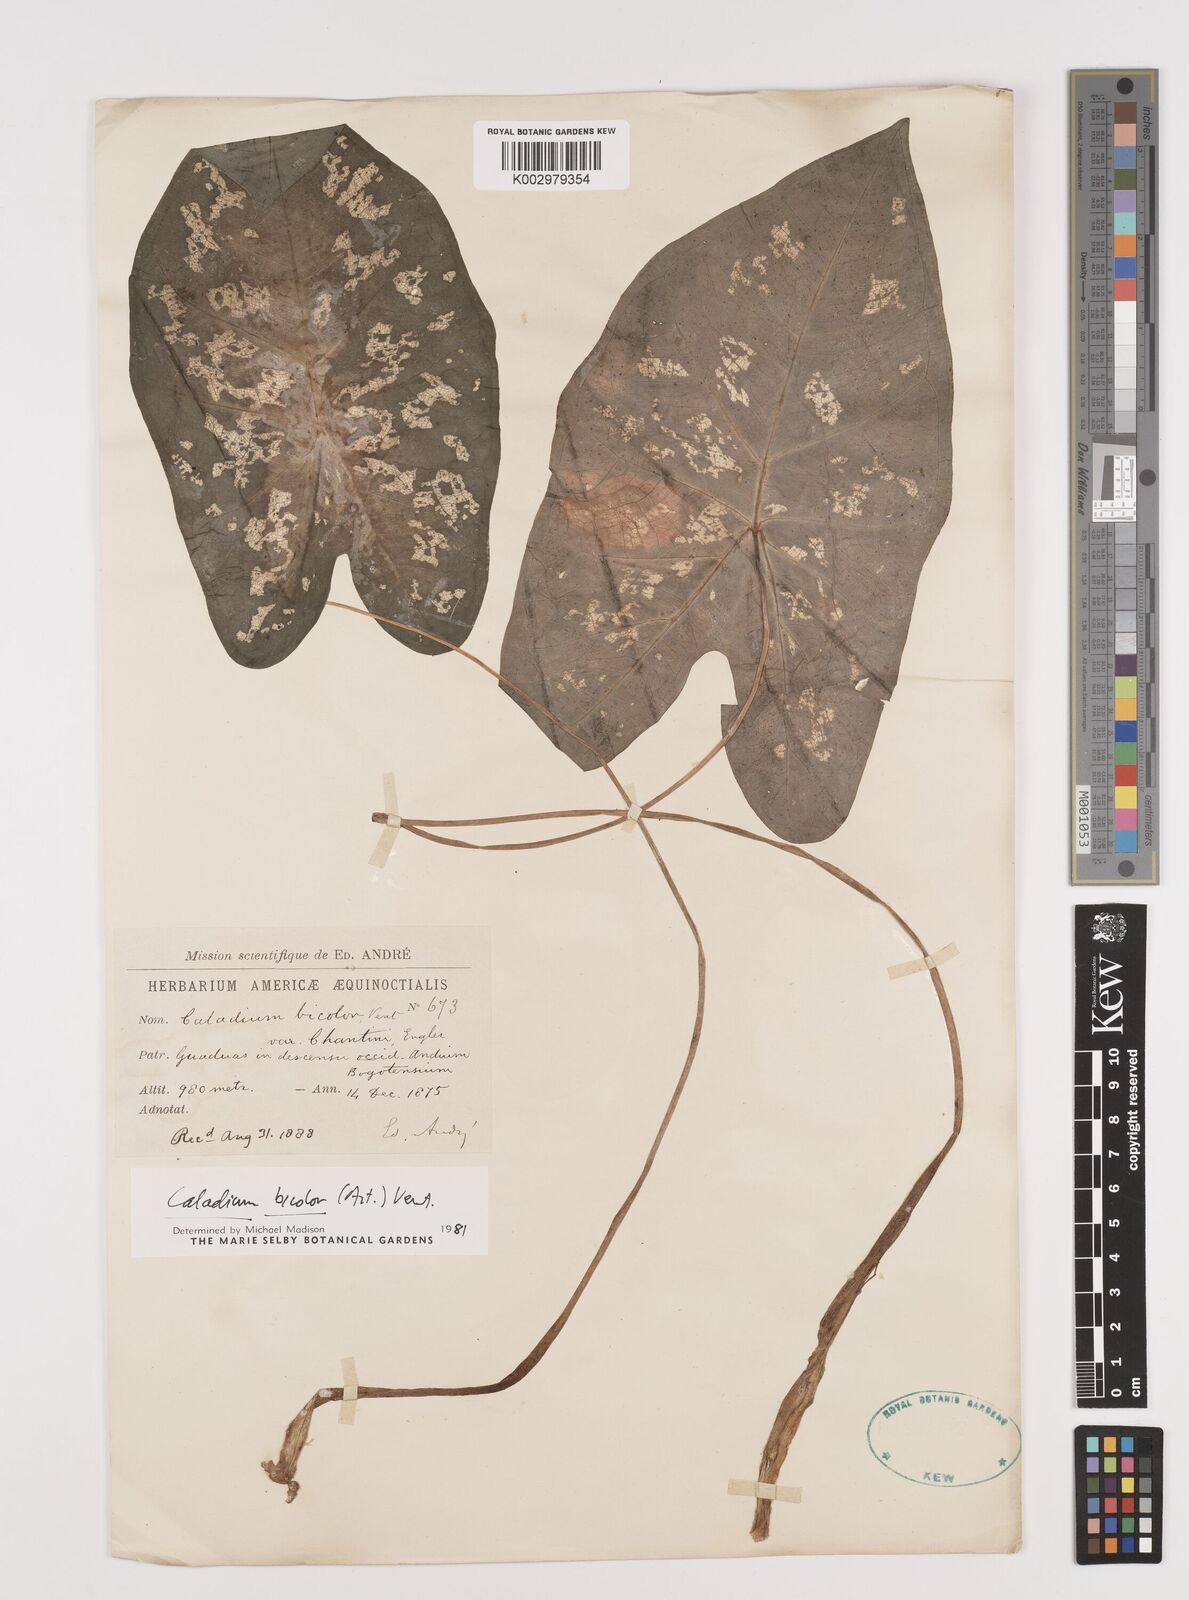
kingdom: Plantae
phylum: Tracheophyta
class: Liliopsida
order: Alismatales
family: Araceae
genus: Caladium
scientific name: Caladium bicolor
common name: Artist's pallet
